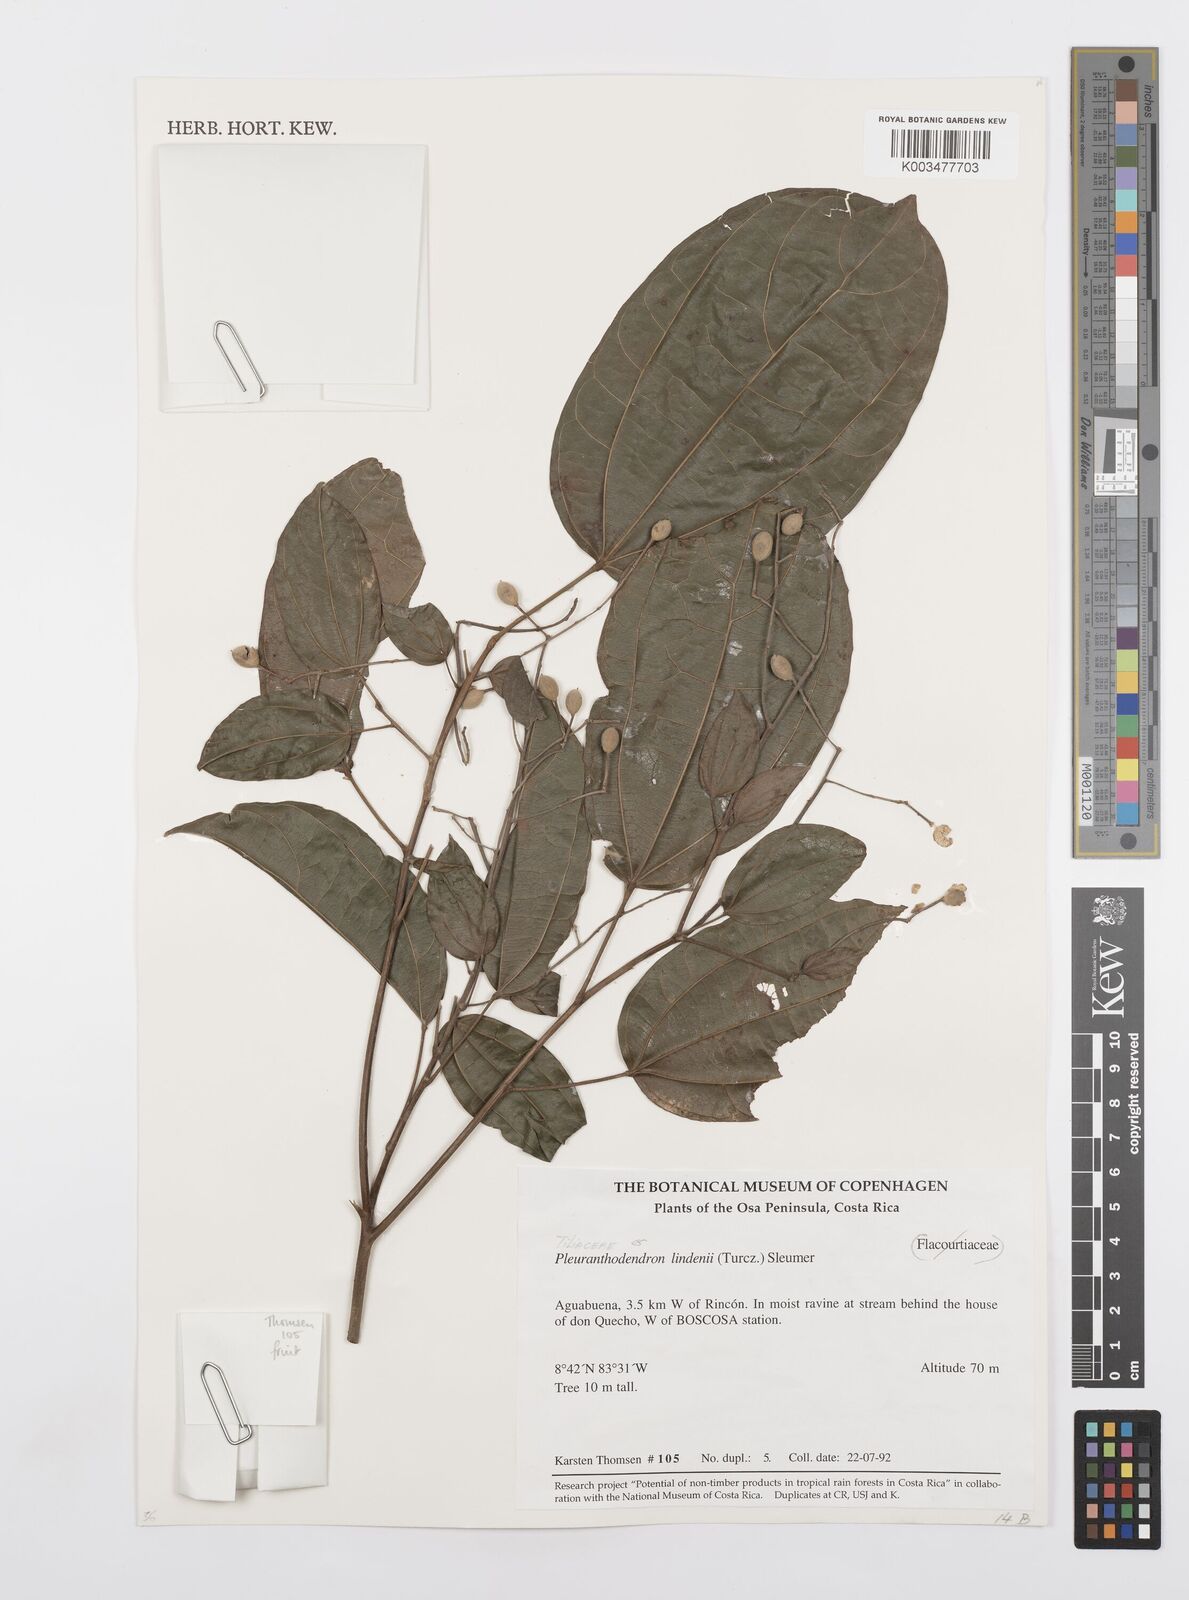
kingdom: Plantae
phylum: Tracheophyta
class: Magnoliopsida
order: Malpighiales
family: Salicaceae
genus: Pleuranthodendron
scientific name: Pleuranthodendron lindenii
